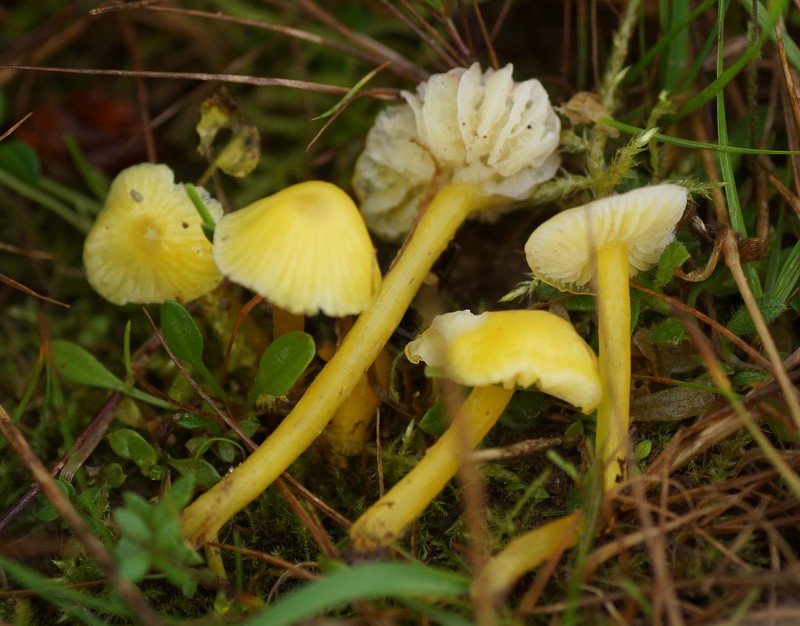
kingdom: Fungi
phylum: Basidiomycota
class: Agaricomycetes
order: Agaricales
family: Hygrophoraceae
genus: Hygrocybe
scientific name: Hygrocybe glutinipes
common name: slimstokket vokshat
